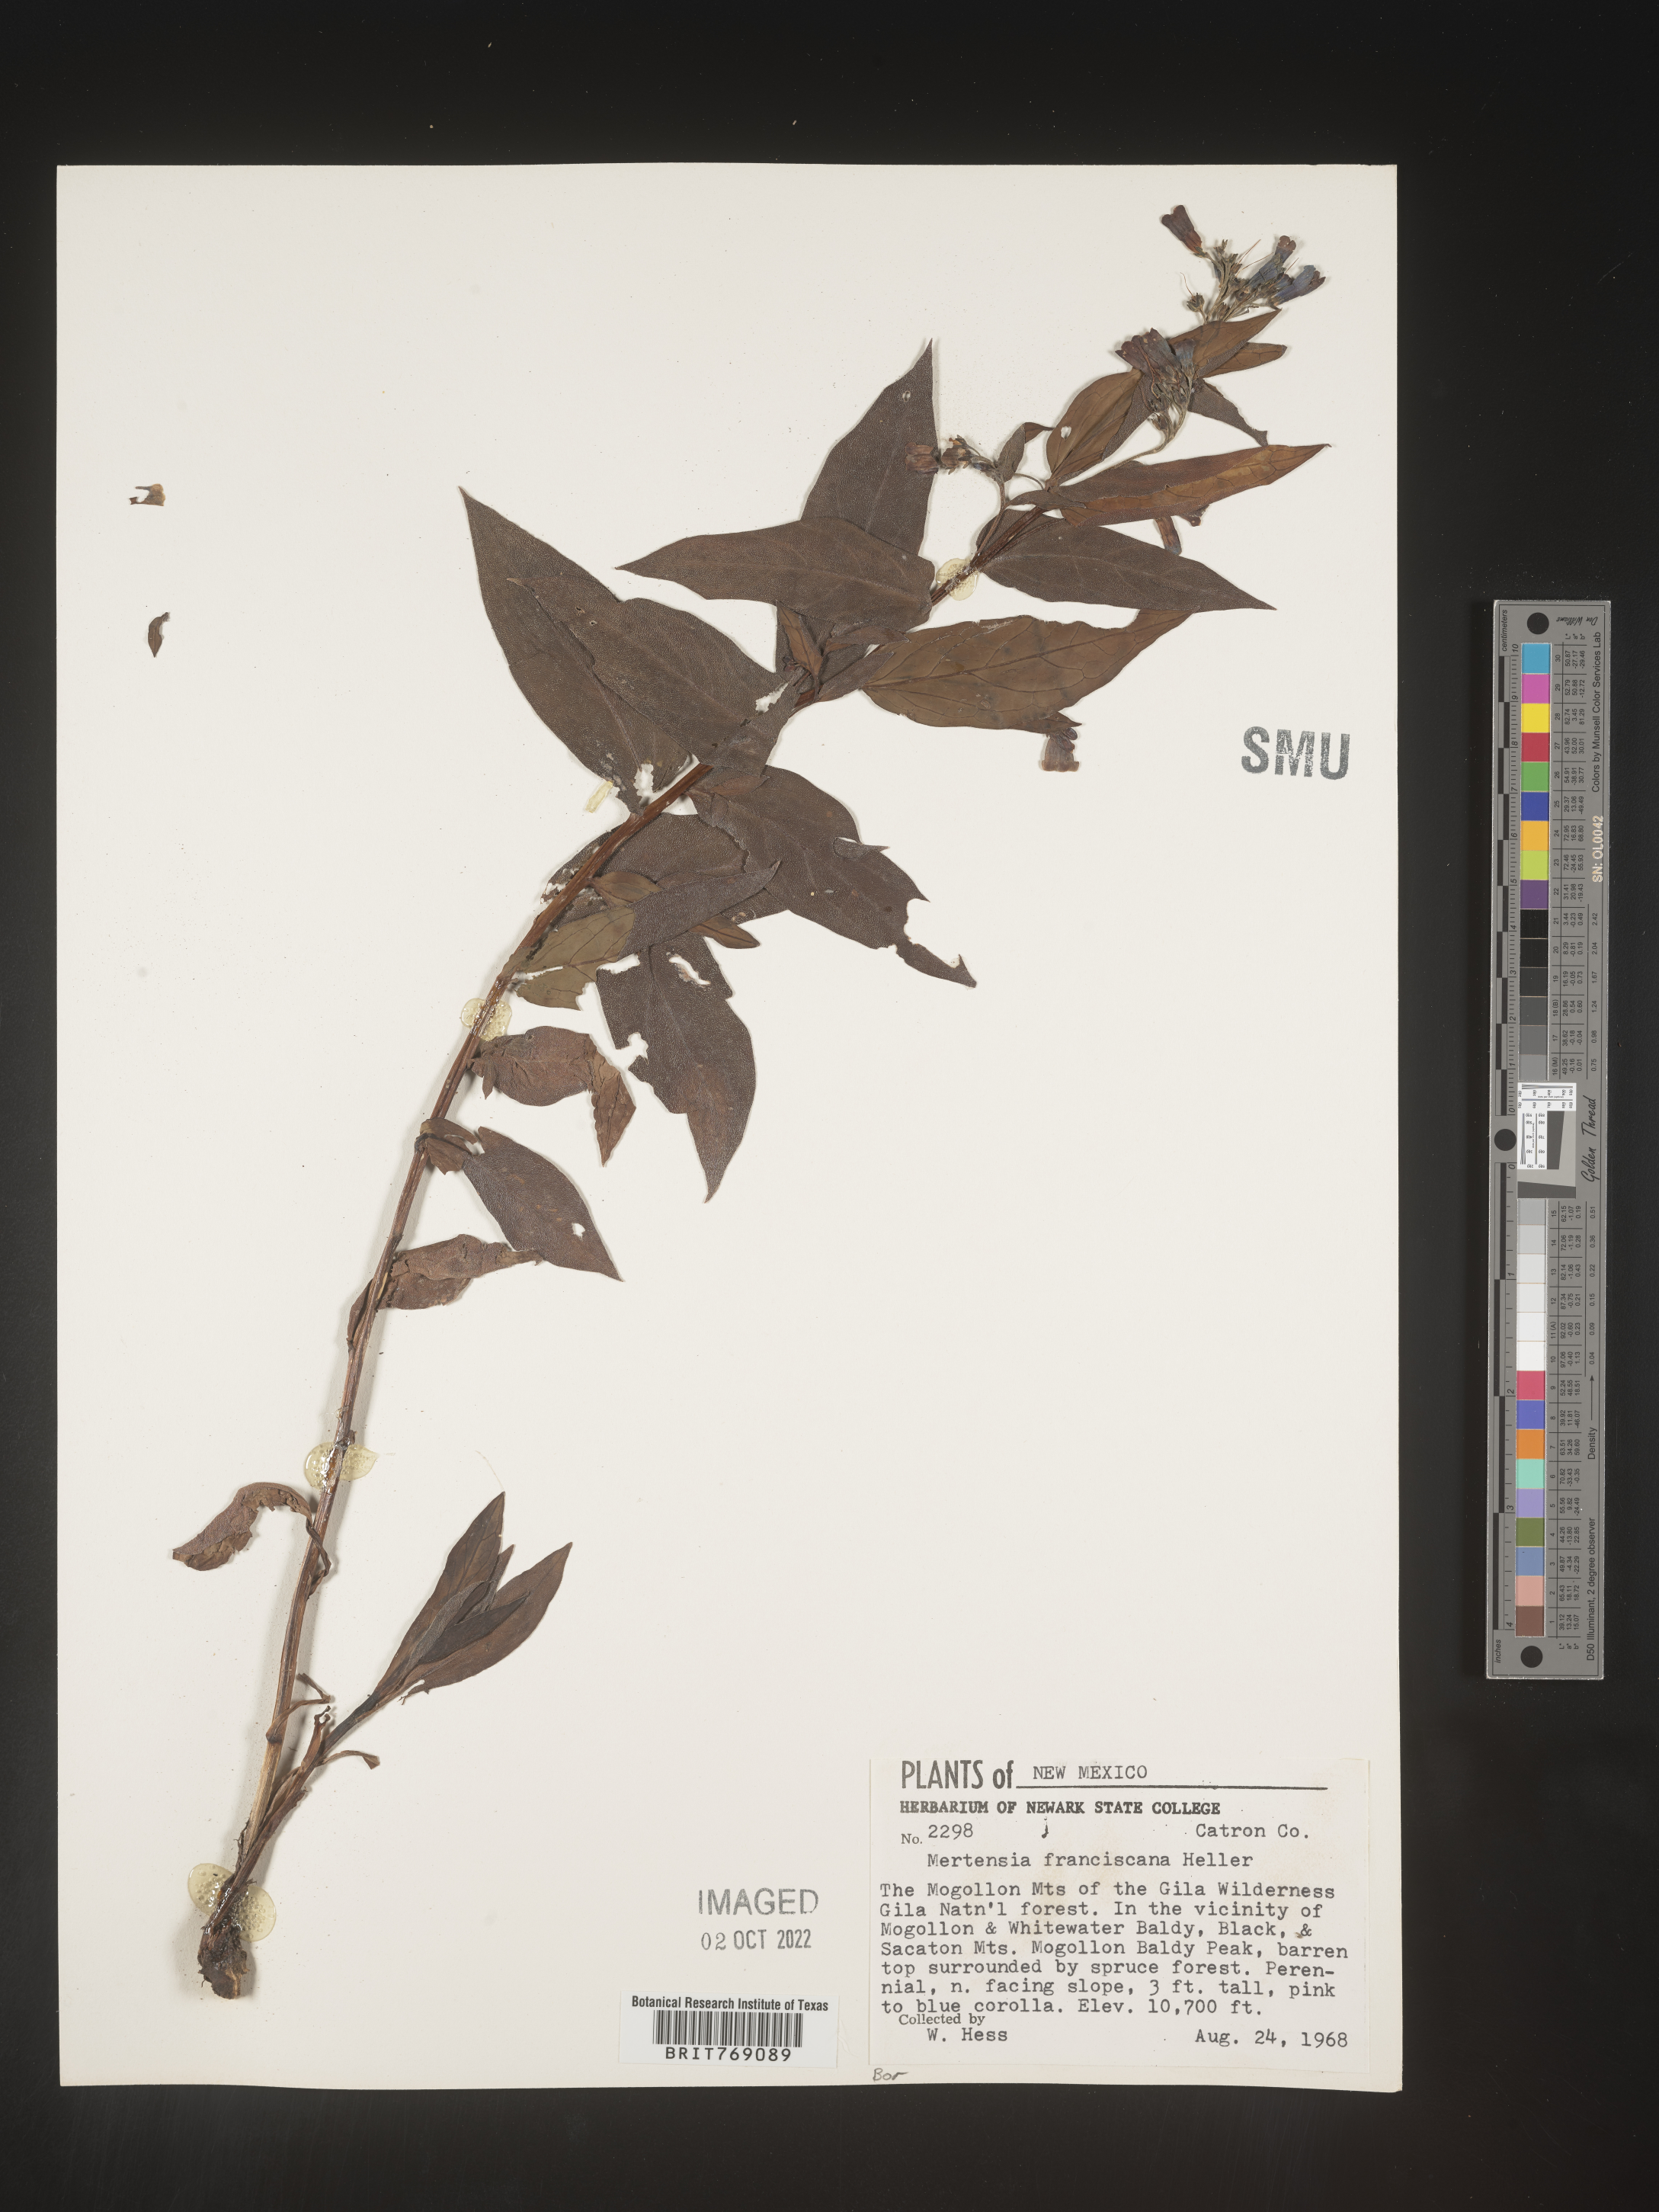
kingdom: Plantae
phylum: Tracheophyta
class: Magnoliopsida
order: Boraginales
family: Boraginaceae
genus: Mertensia
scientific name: Mertensia
